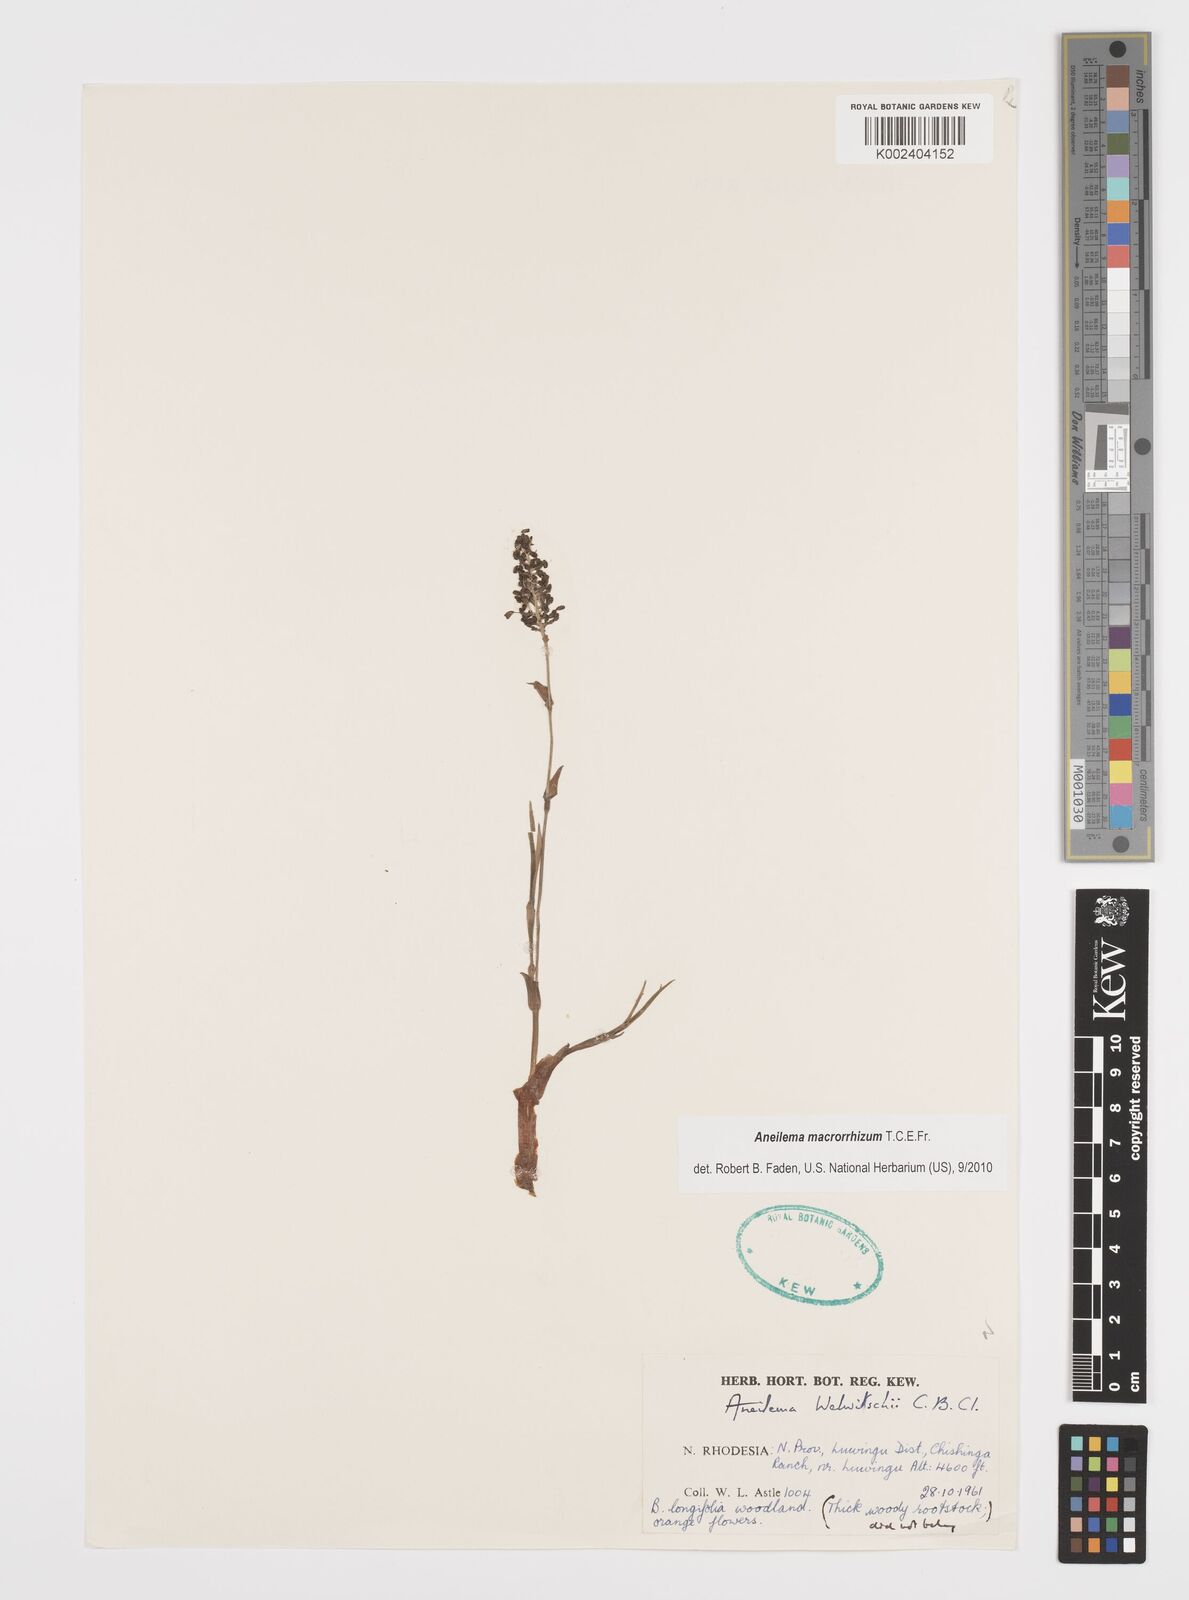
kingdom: Plantae
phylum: Tracheophyta
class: Liliopsida
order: Commelinales
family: Commelinaceae
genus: Aneilema
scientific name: Aneilema macrorrhizum
